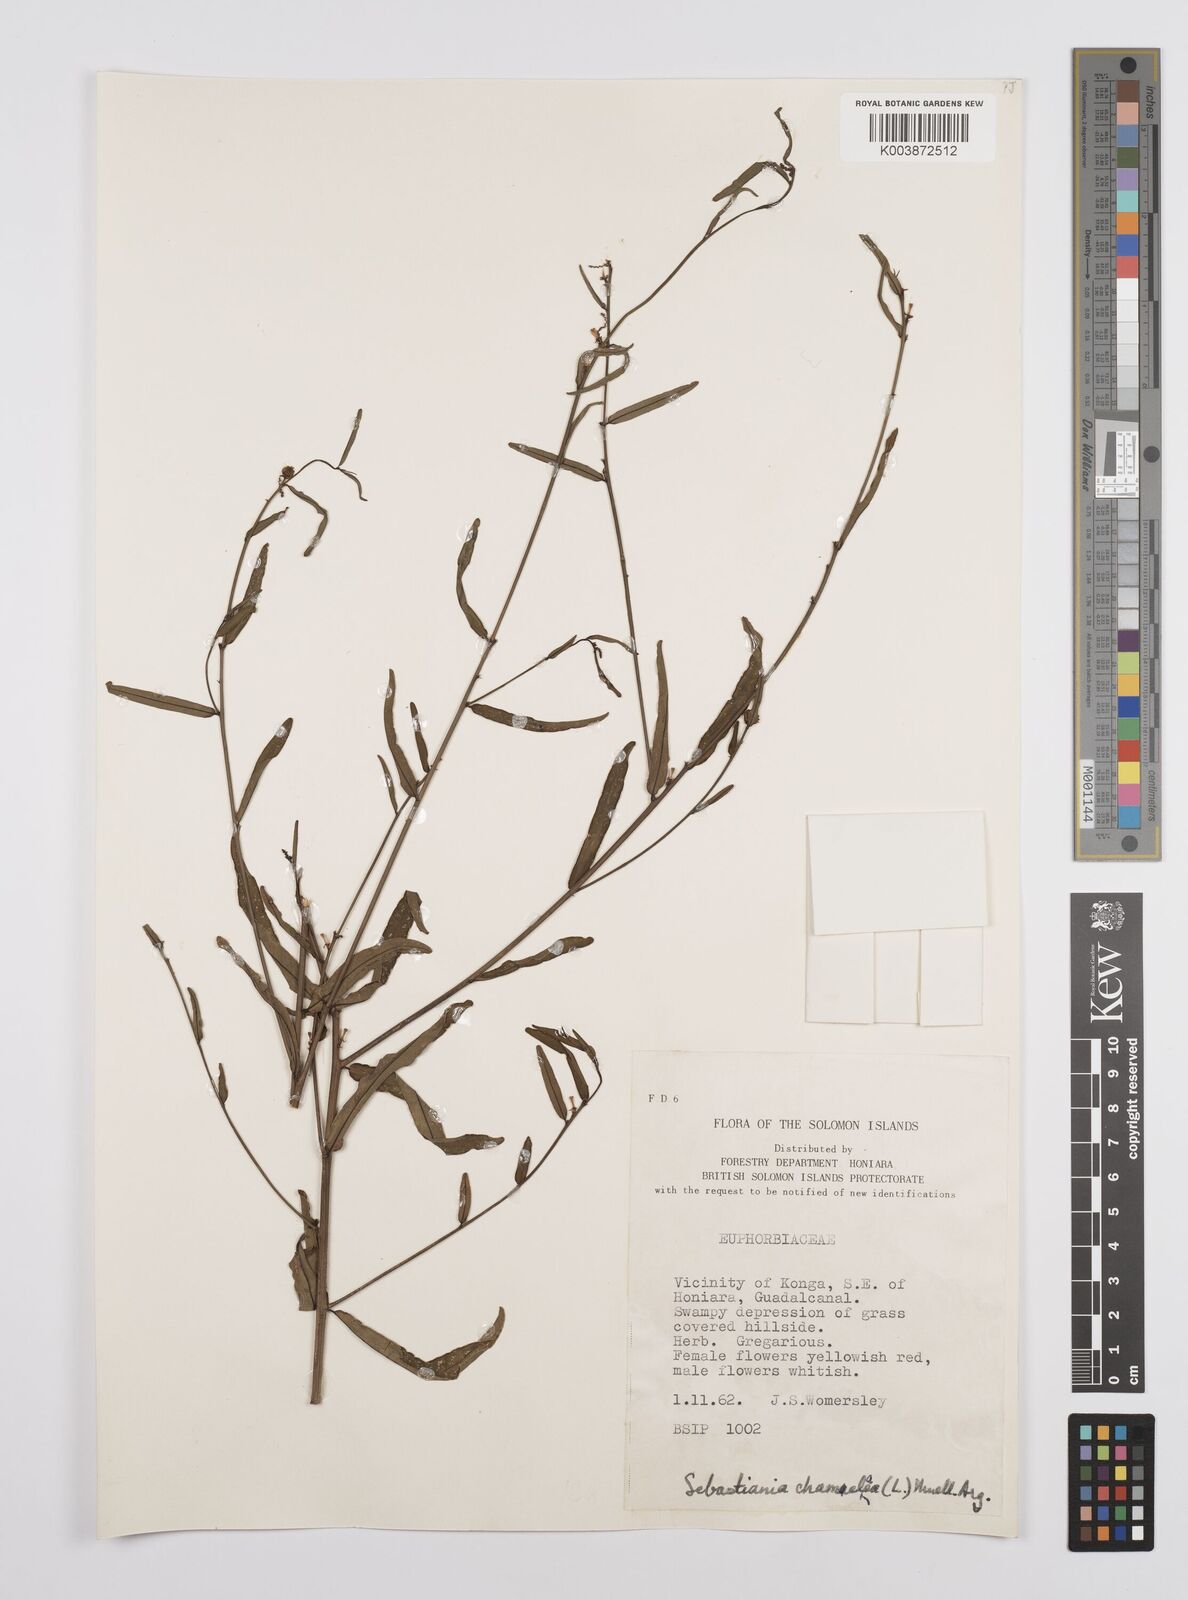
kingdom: Plantae
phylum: Tracheophyta
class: Magnoliopsida
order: Malpighiales
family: Euphorbiaceae
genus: Microstachys
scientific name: Microstachys chamaelea
